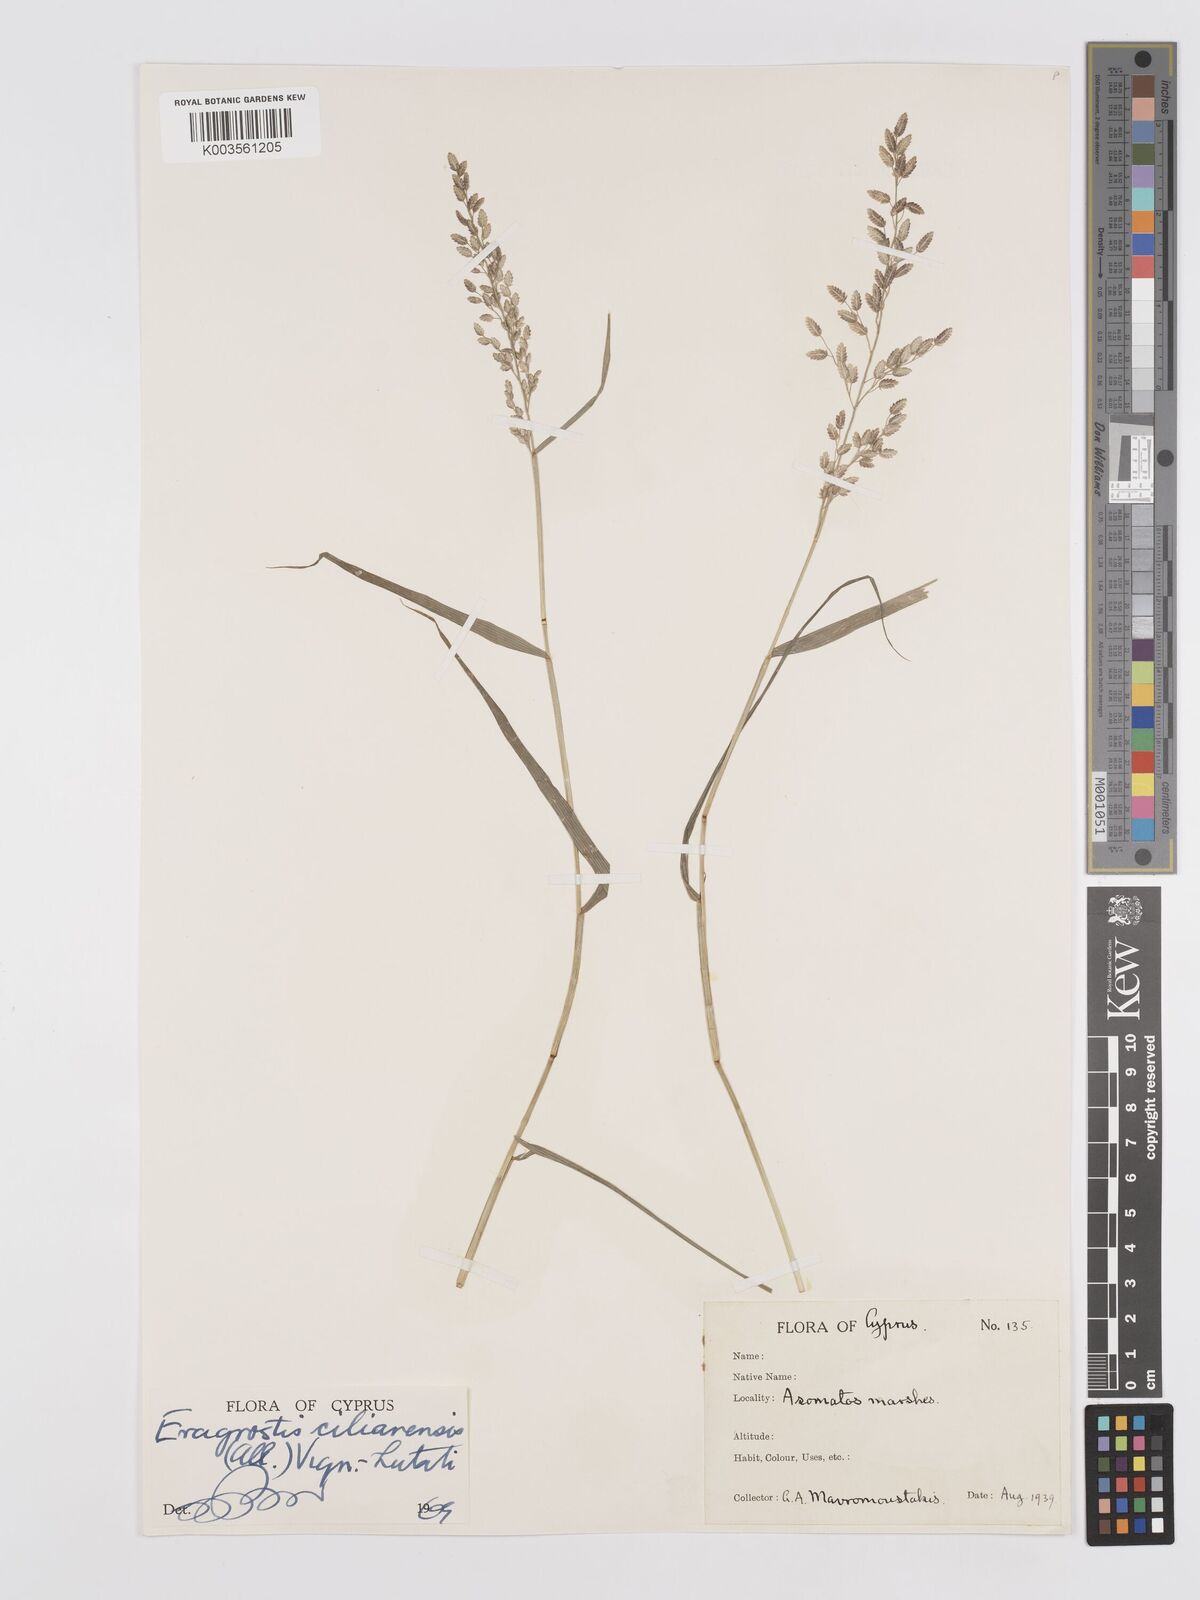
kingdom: Plantae
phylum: Tracheophyta
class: Liliopsida
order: Poales
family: Poaceae
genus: Eragrostis
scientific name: Eragrostis cilianensis
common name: Stinkgrass
